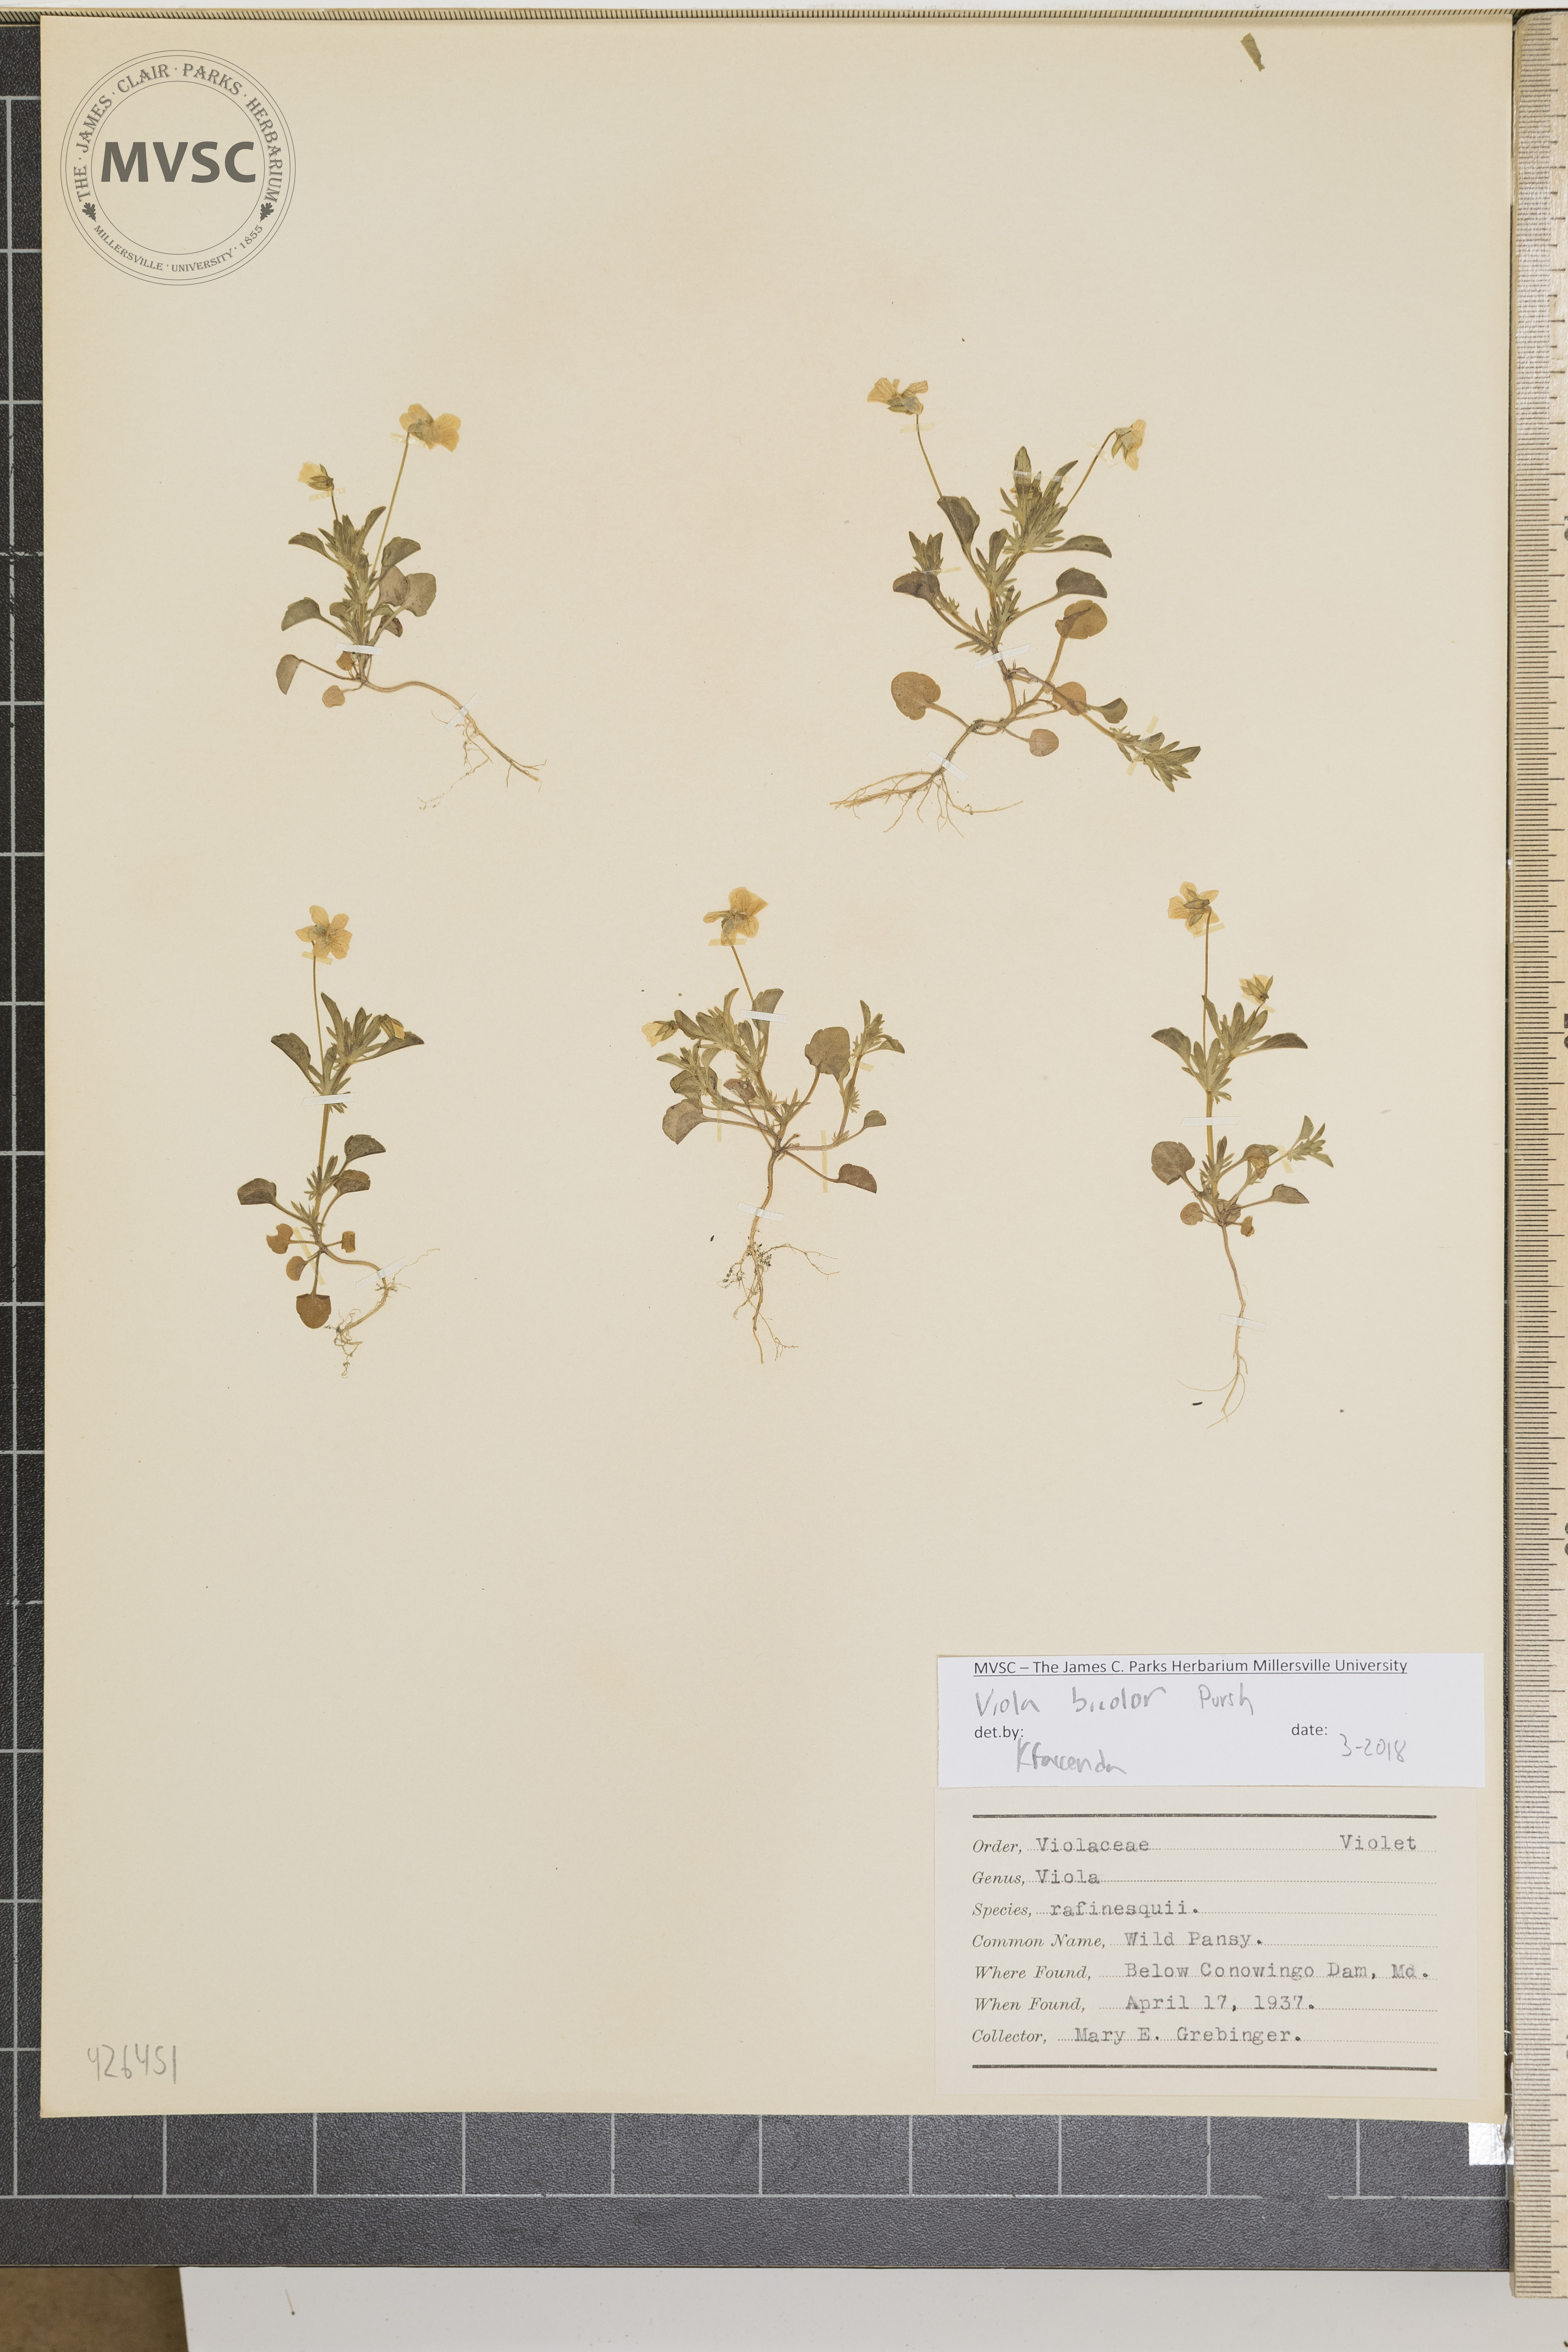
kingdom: Plantae
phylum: Tracheophyta
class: Magnoliopsida
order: Malpighiales
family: Violaceae
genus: Viola
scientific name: Viola rafinesquei
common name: Wild pansy
